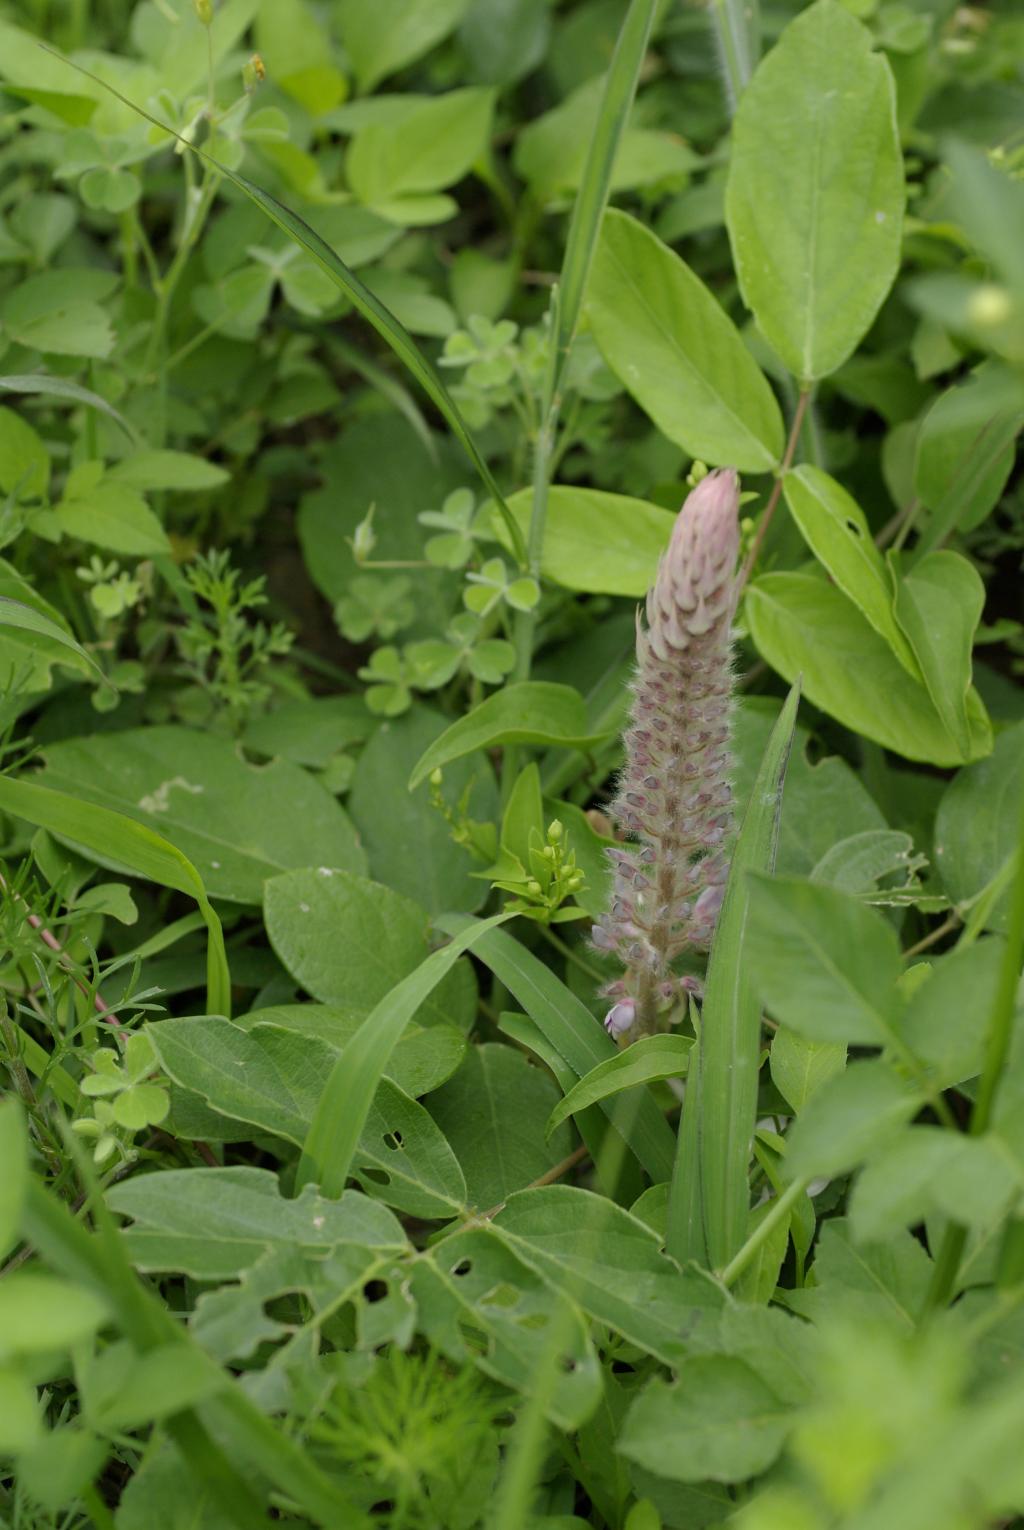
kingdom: Plantae
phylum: Tracheophyta
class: Magnoliopsida
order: Fabales
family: Fabaceae
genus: Uraria
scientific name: Uraria crinita
